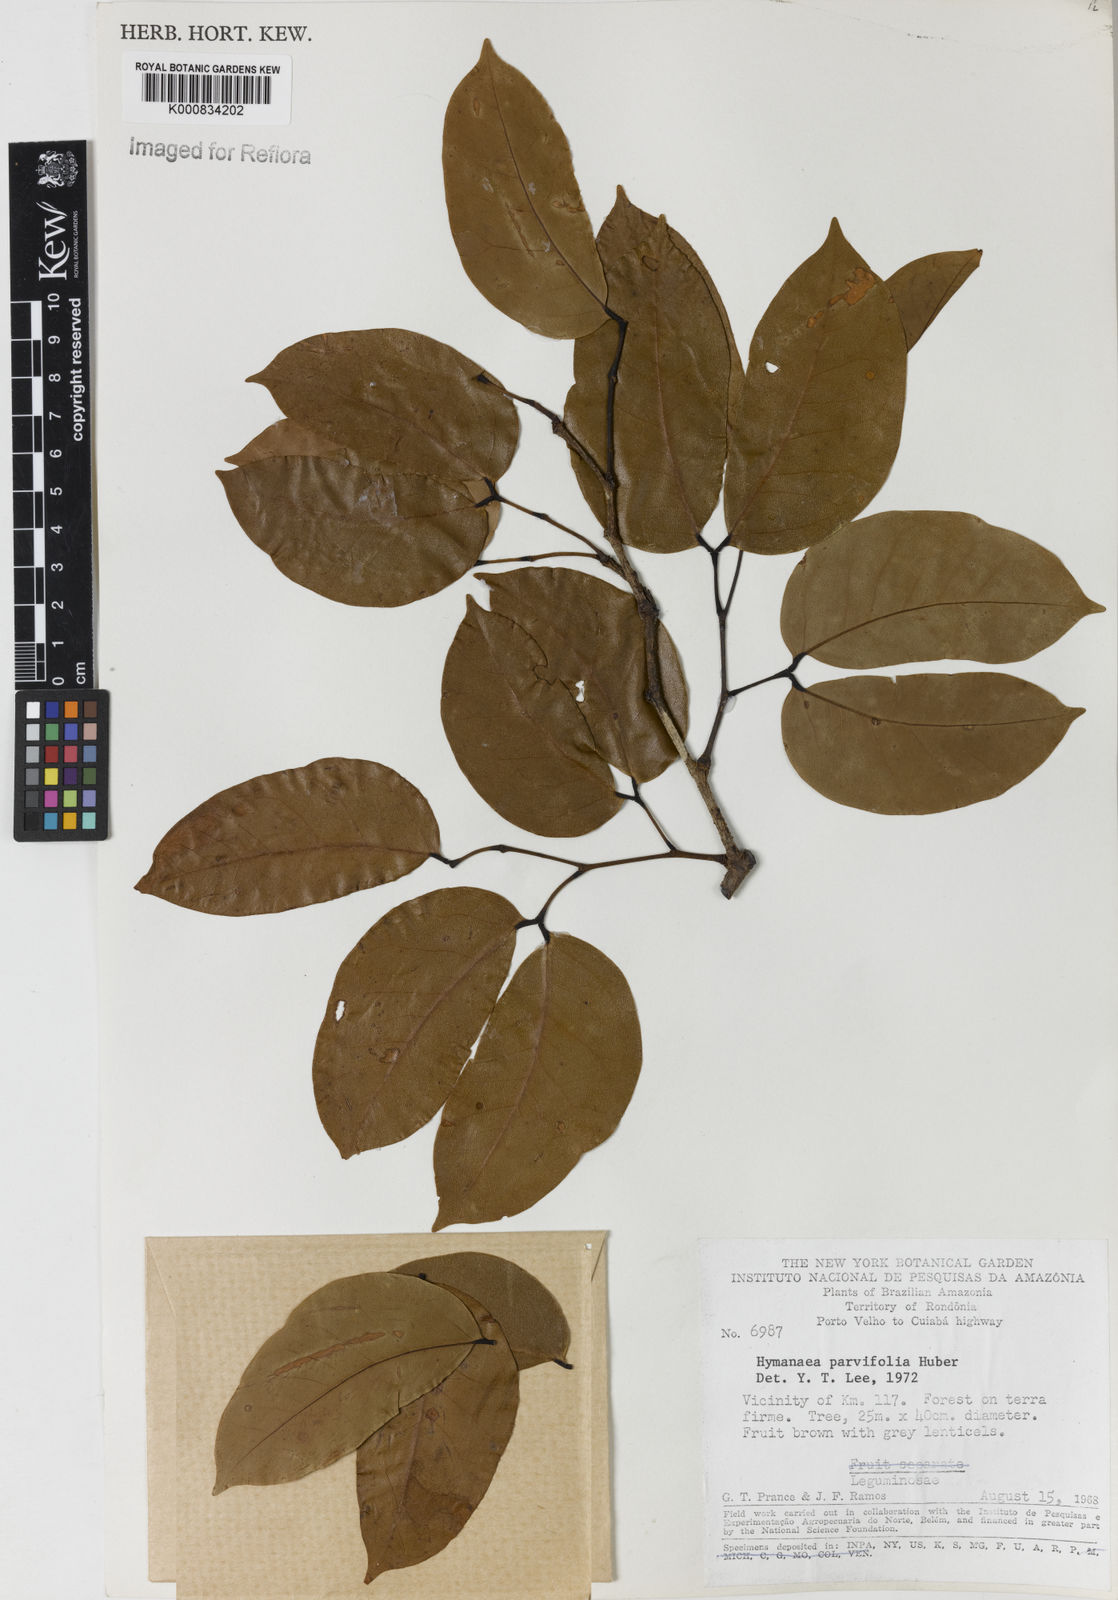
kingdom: Plantae
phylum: Tracheophyta
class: Magnoliopsida
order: Fabales
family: Fabaceae
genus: Hymenaea
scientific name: Hymenaea parvifolia
